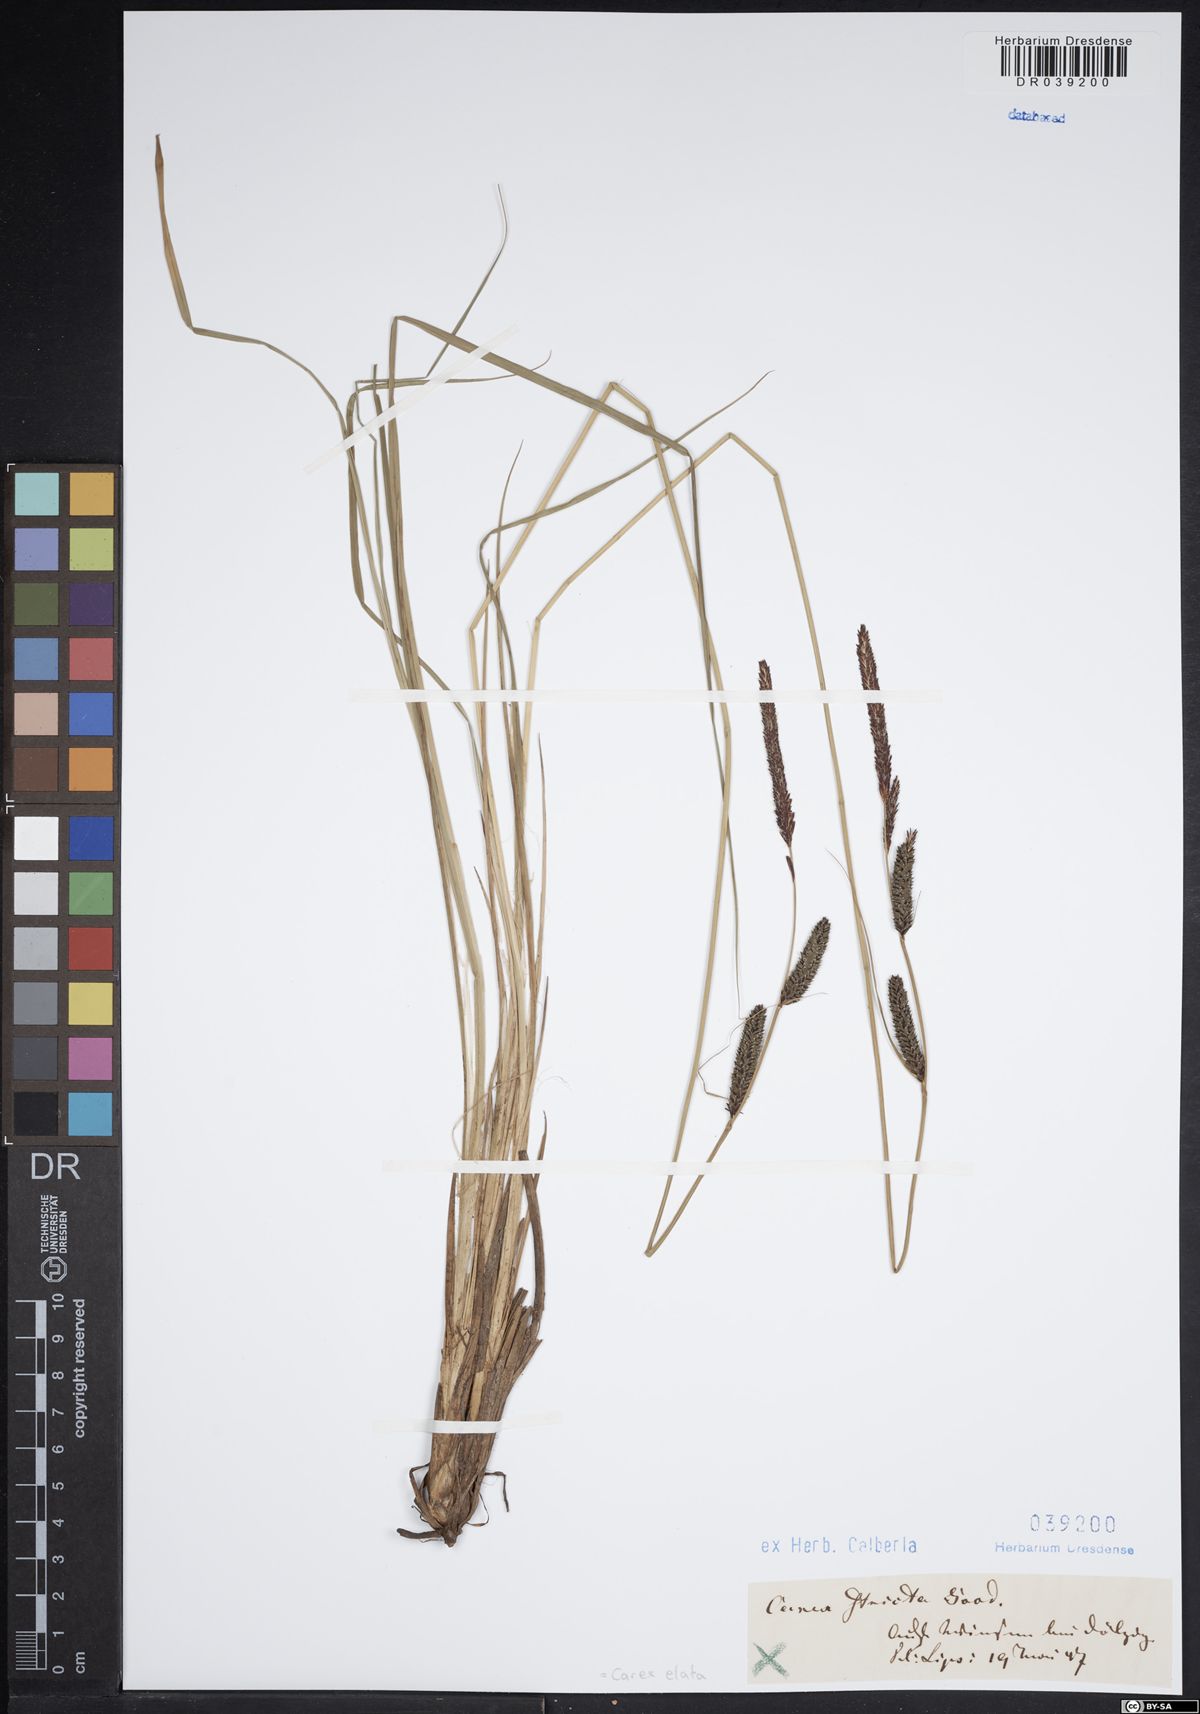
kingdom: Plantae
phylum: Tracheophyta
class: Liliopsida
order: Poales
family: Cyperaceae
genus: Carex
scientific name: Carex elata
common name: Tufted sedge
